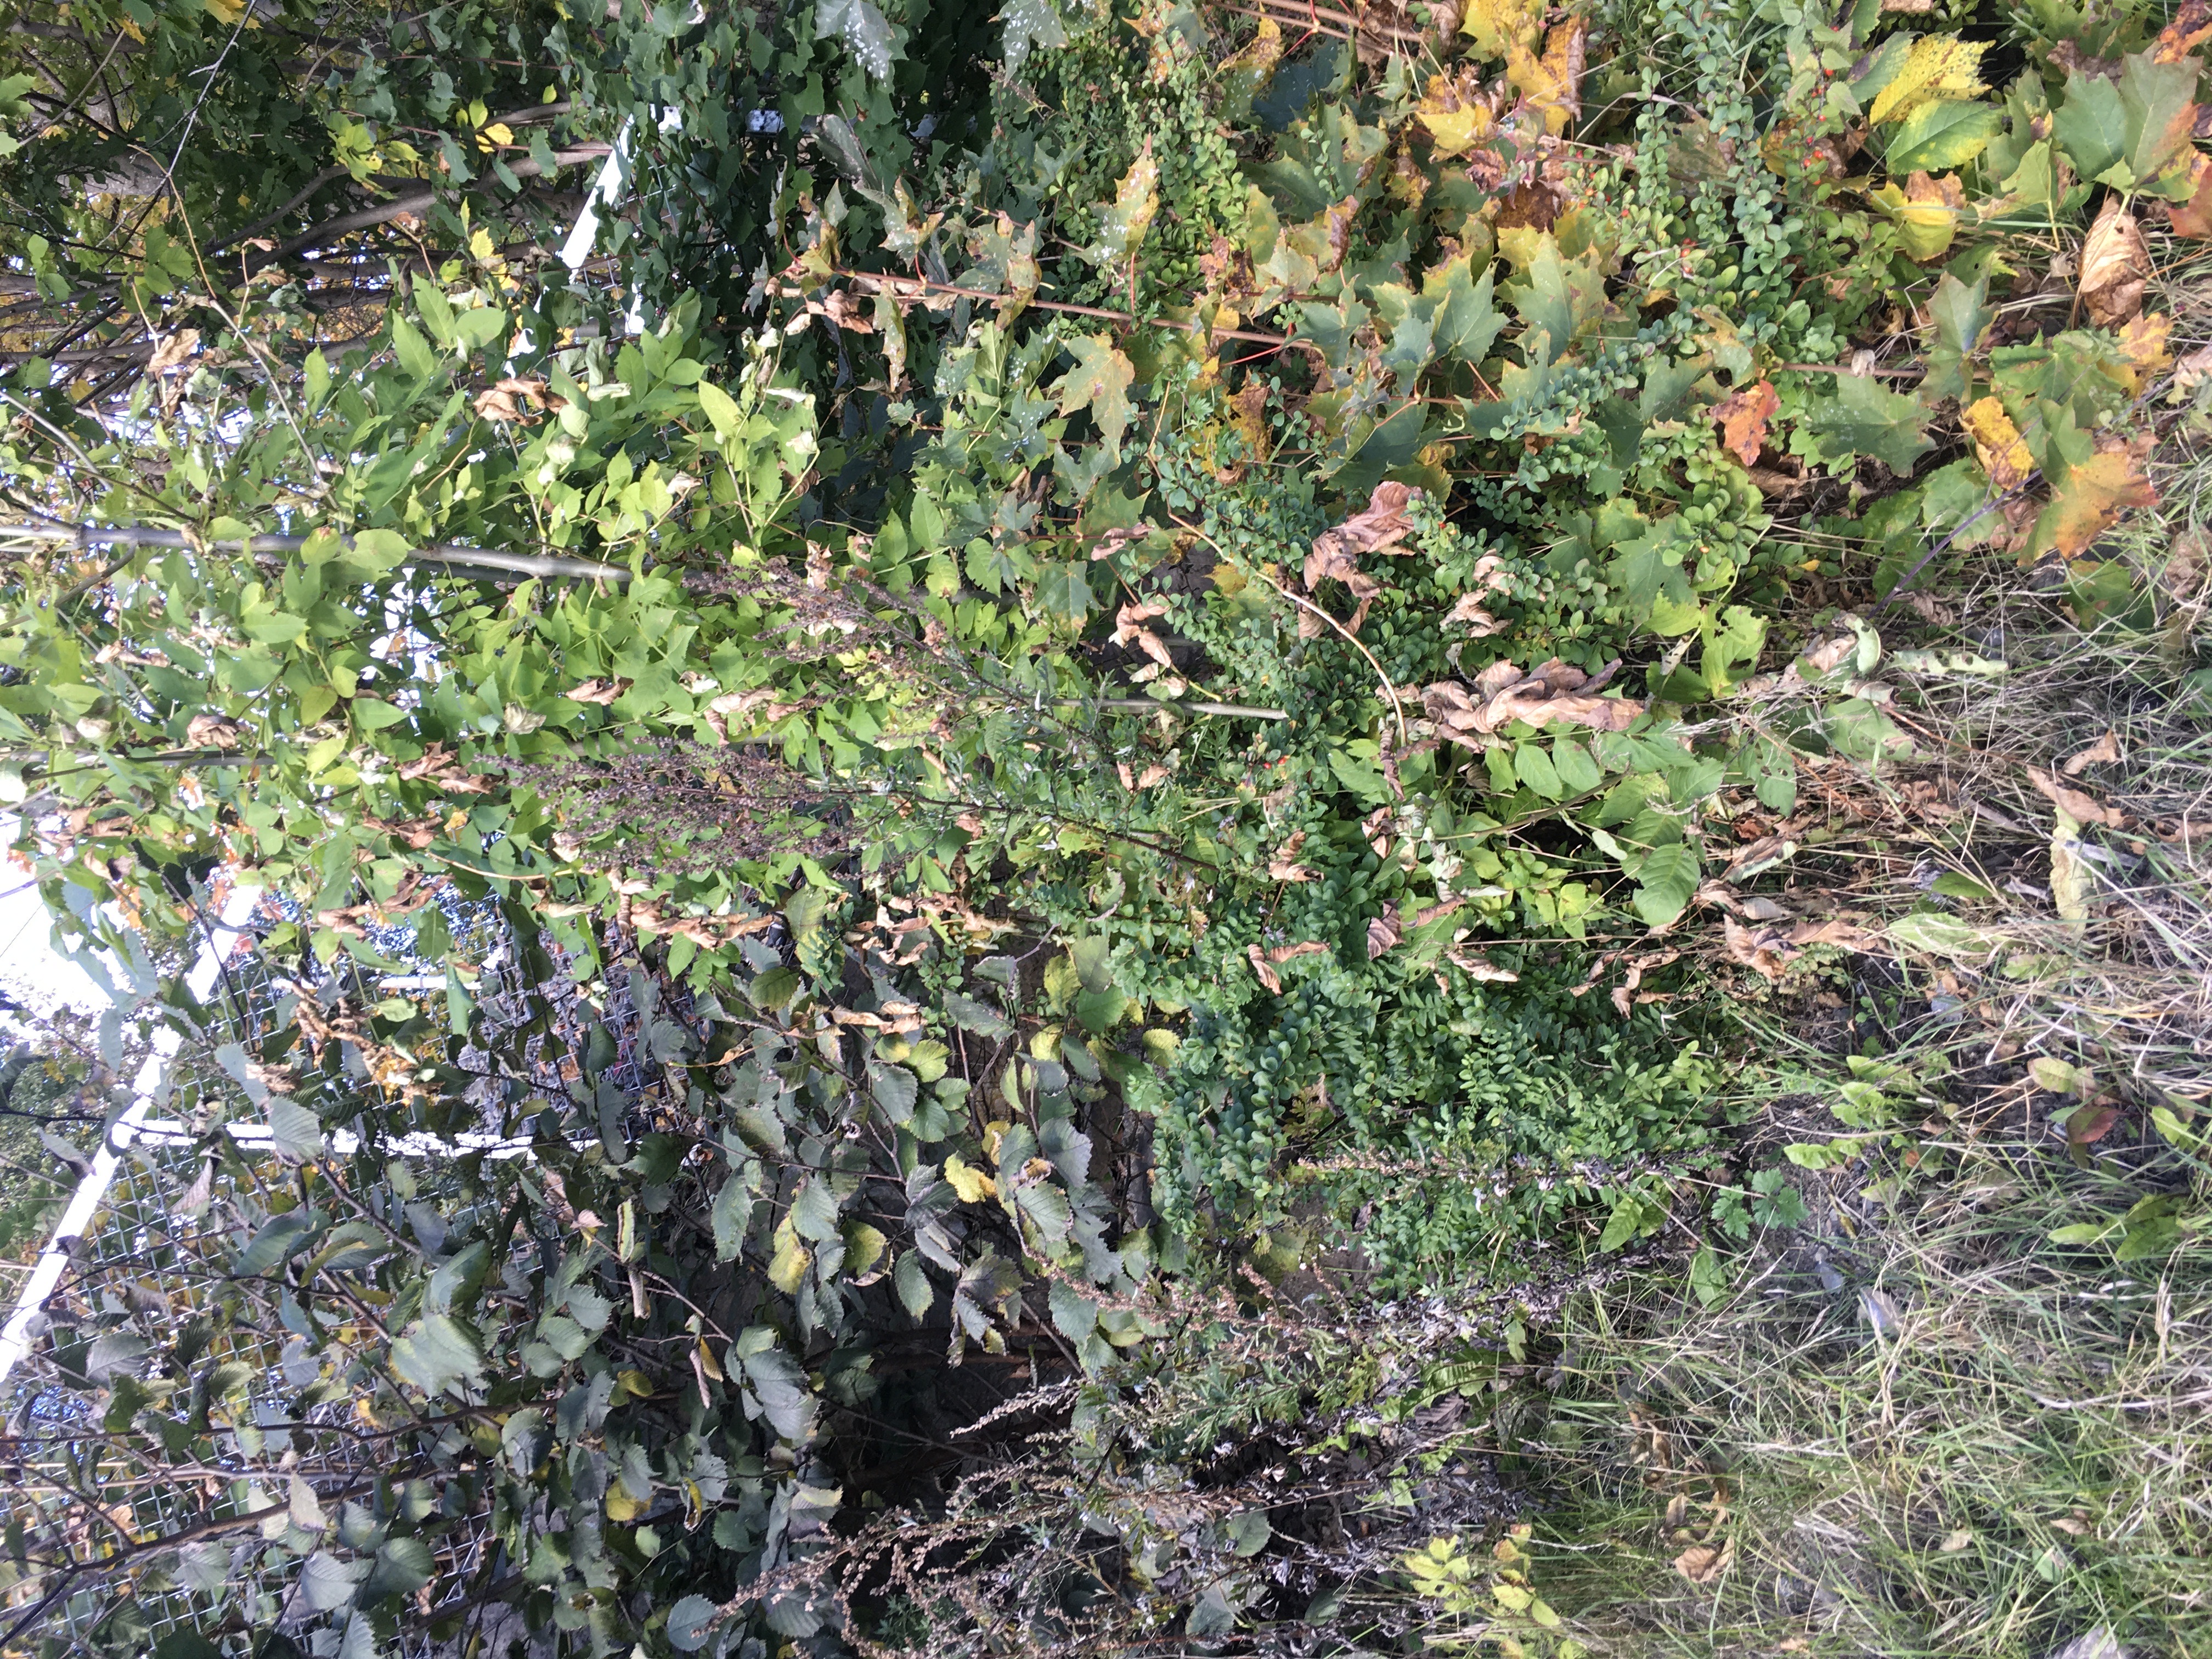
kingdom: Plantae
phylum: Tracheophyta
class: Magnoliopsida
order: Ranunculales
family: Berberidaceae
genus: Berberis
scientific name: Berberis thunbergii
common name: høstberberis
